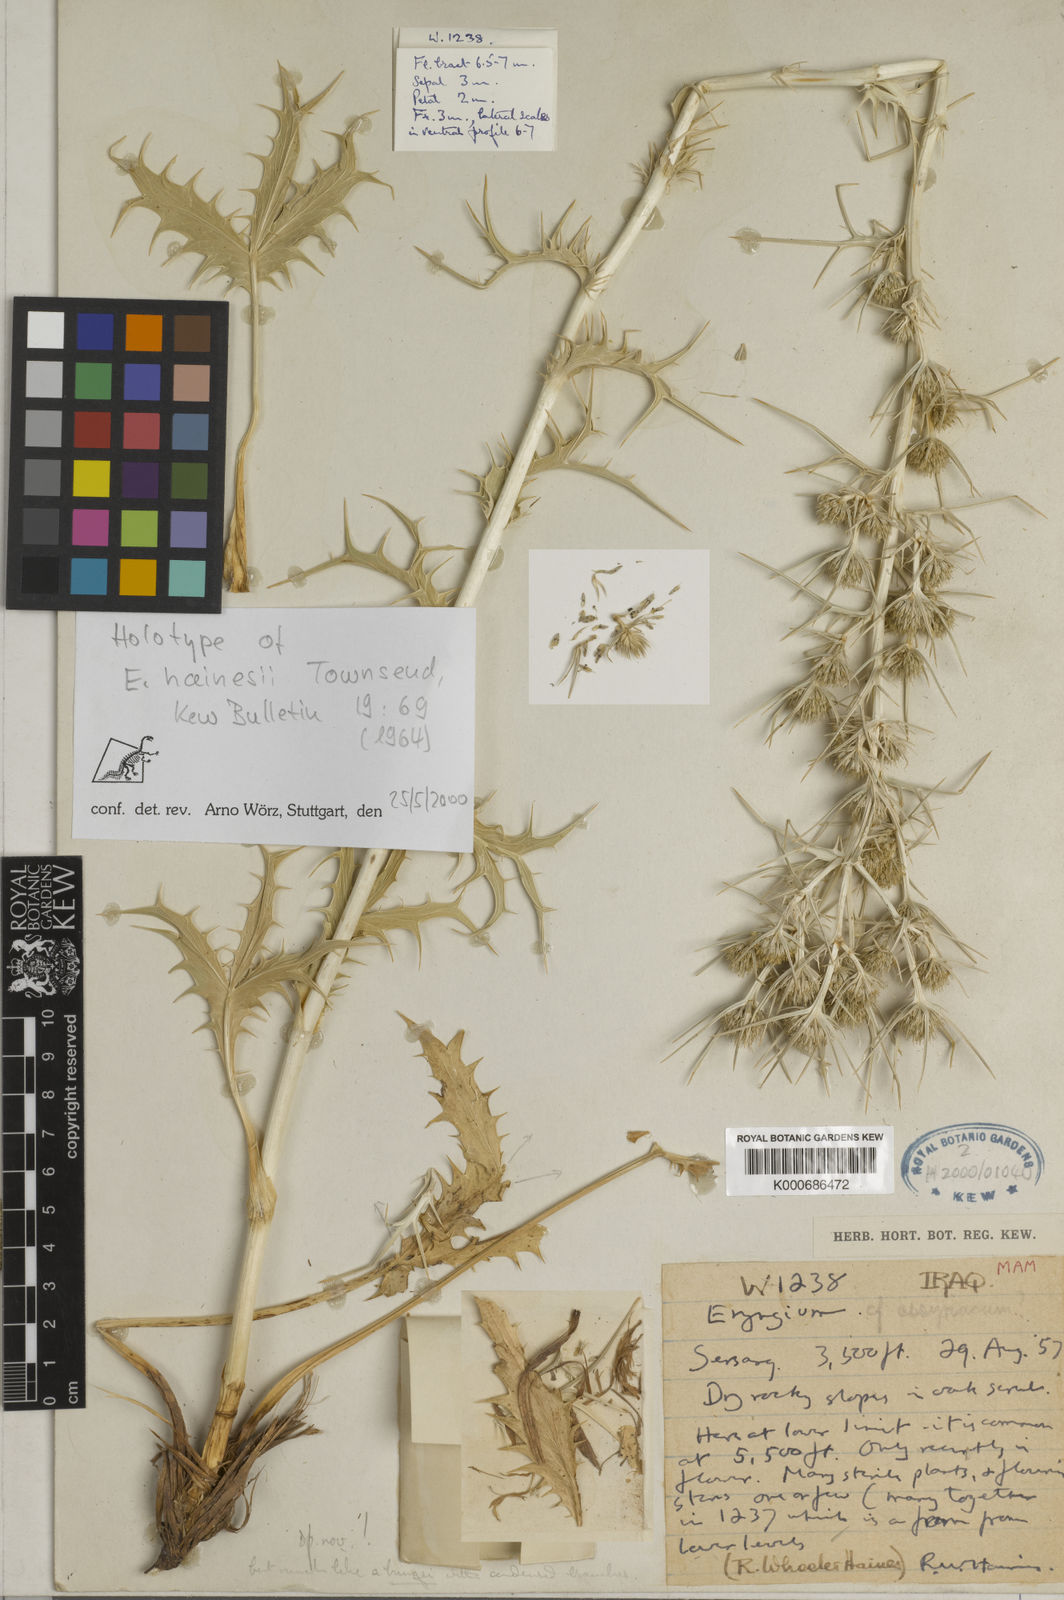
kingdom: Plantae
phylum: Tracheophyta
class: Magnoliopsida
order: Apiales
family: Apiaceae
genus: Eryngium
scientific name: Eryngium hainesii
